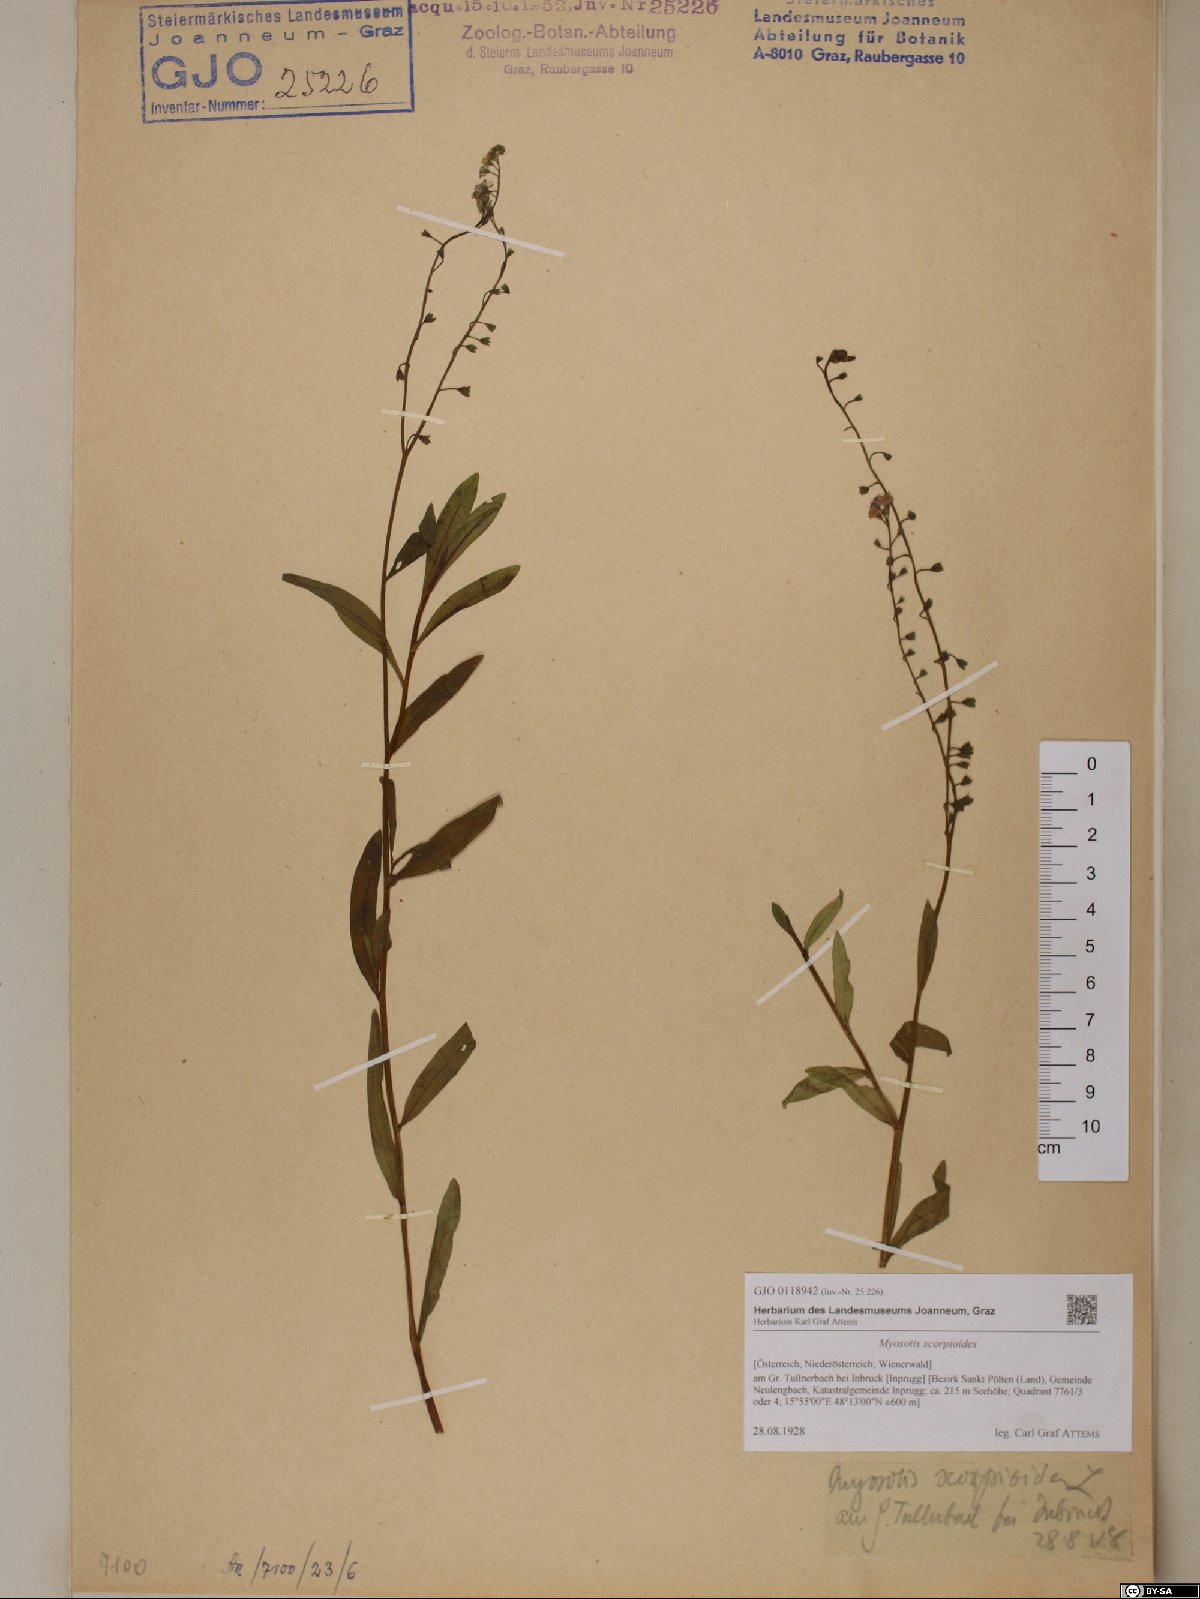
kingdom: Plantae
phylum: Tracheophyta
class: Magnoliopsida
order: Boraginales
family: Boraginaceae
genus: Myosotis
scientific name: Myosotis scorpioides
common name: Water forget-me-not
